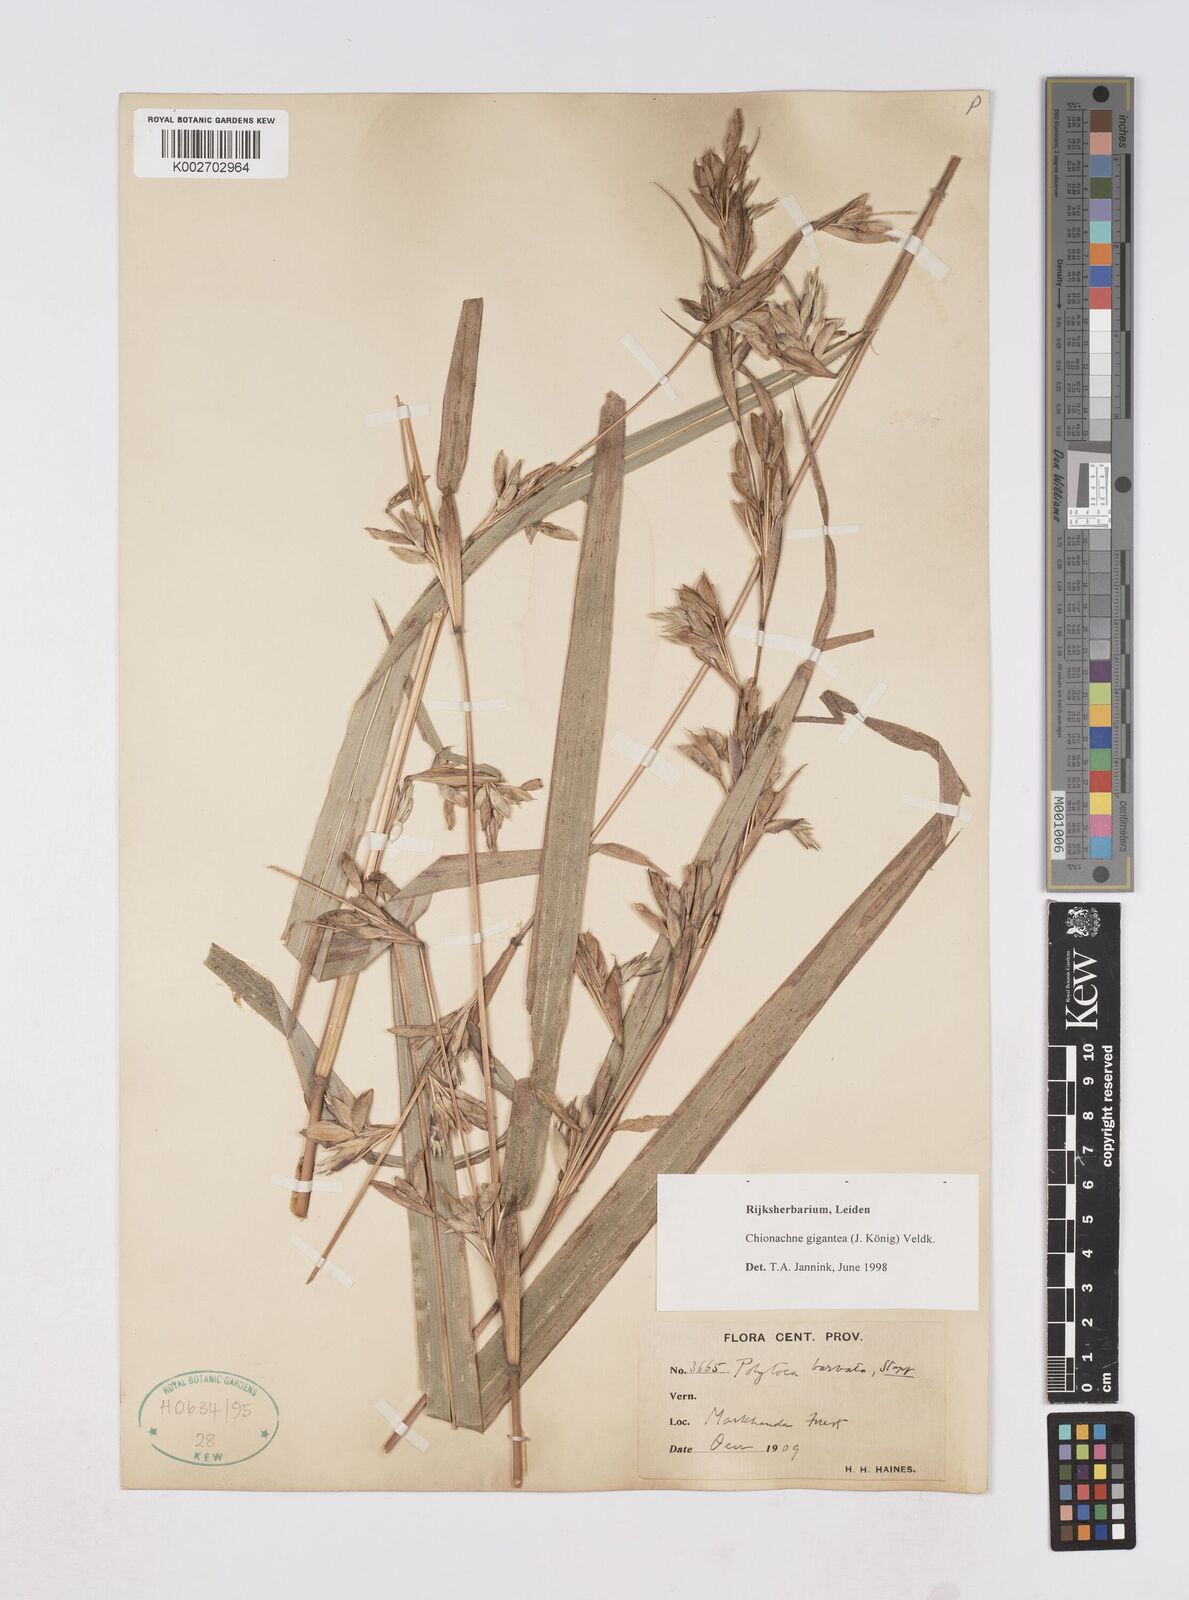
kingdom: Plantae
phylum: Tracheophyta
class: Liliopsida
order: Poales
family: Poaceae
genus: Polytoca
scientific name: Polytoca gigantea
